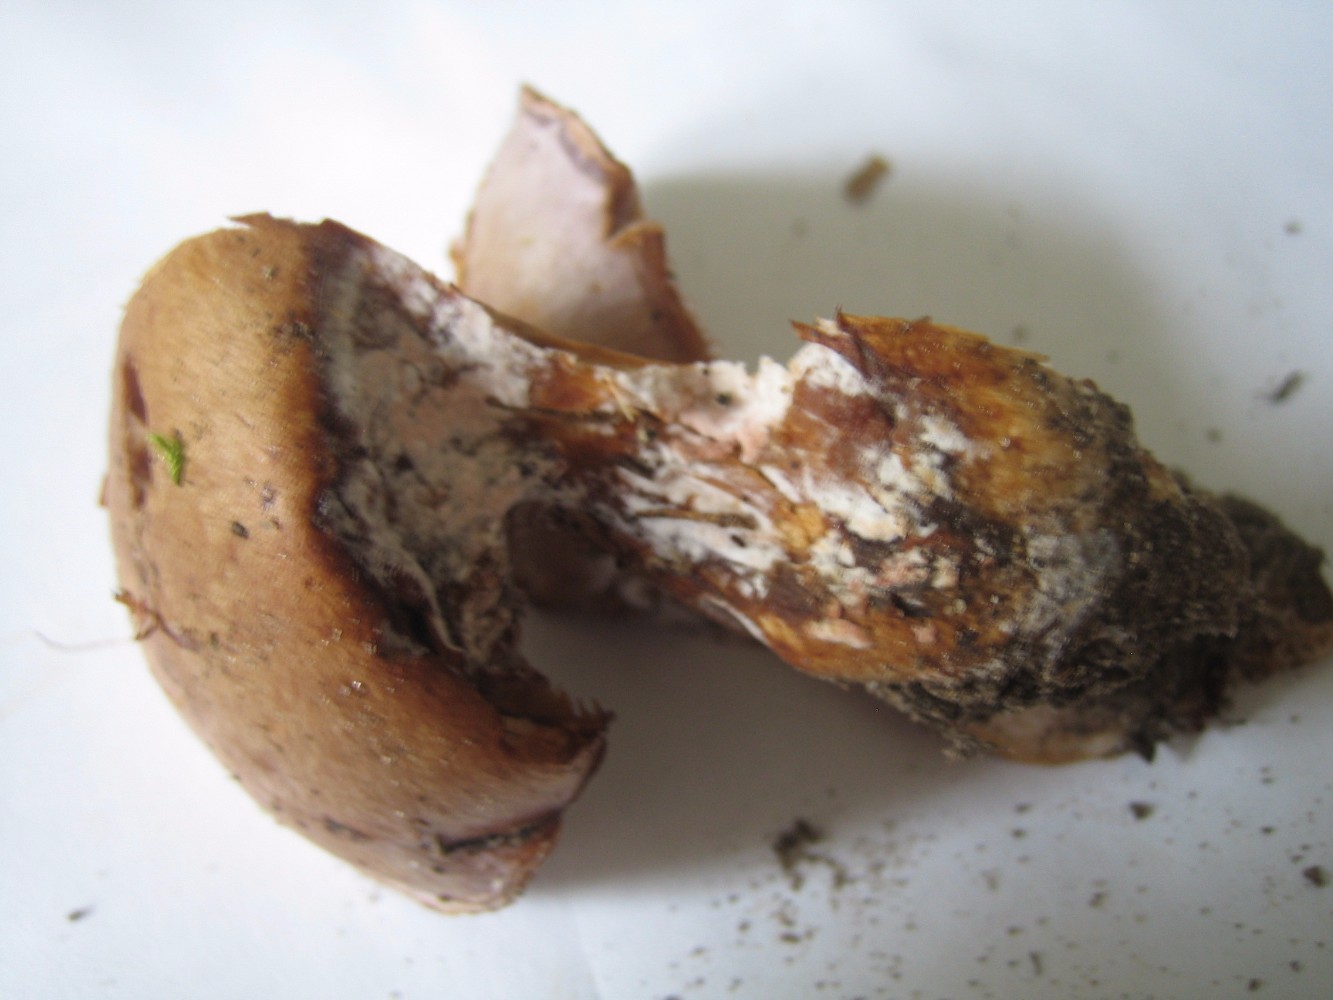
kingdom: Fungi
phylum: Basidiomycota
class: Agaricomycetes
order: Agaricales
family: Cortinariaceae
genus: Cortinarius
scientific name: Cortinarius largus
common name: violetrandet slørhat
